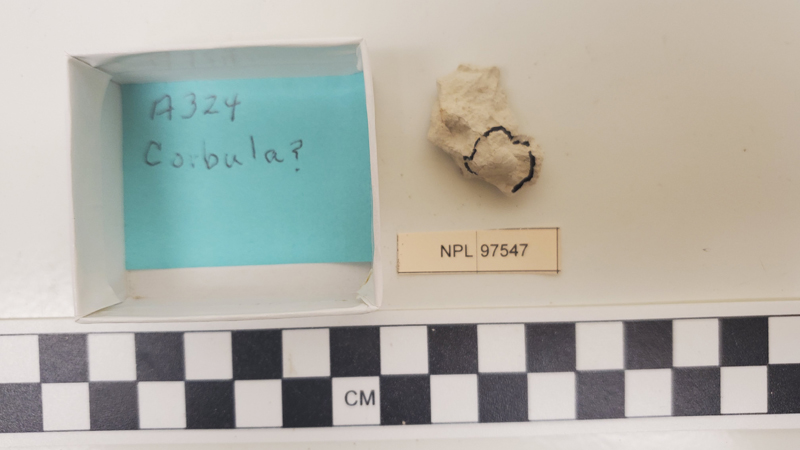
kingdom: Animalia
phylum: Mollusca
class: Bivalvia
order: Myida
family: Corbulidae
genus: Corbula
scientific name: Corbula
